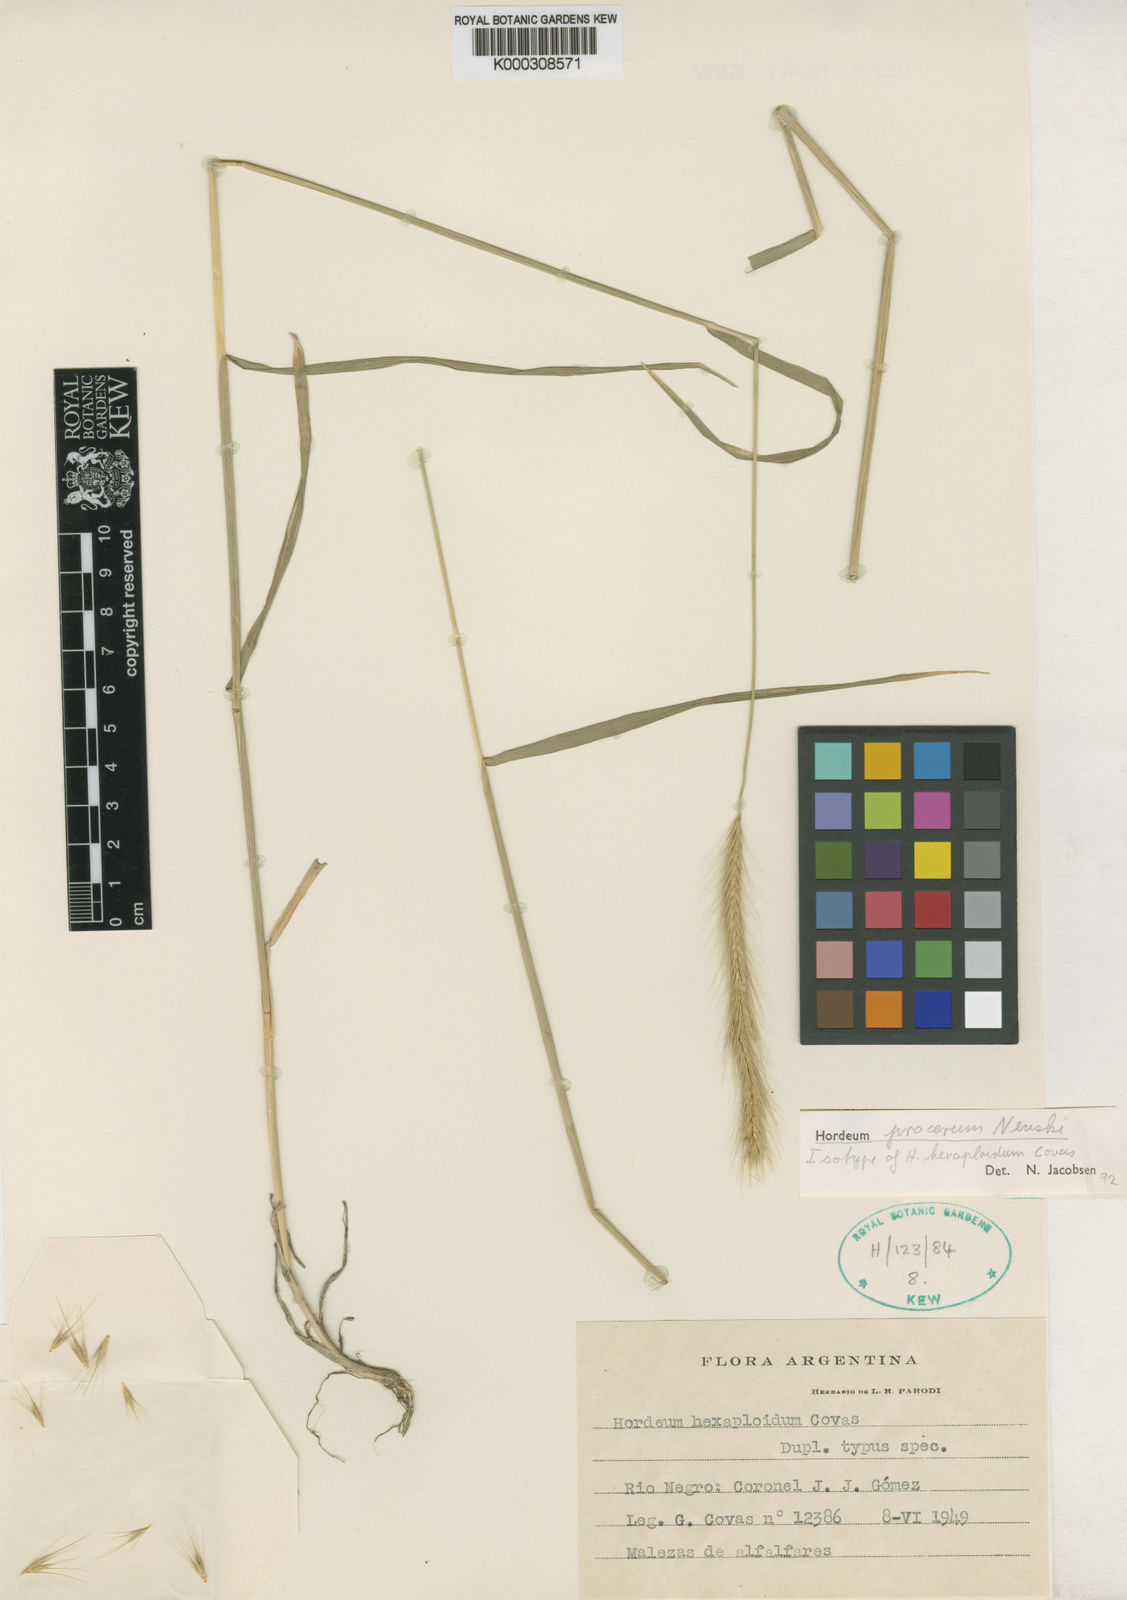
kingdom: Plantae
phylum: Tracheophyta
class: Liliopsida
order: Poales
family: Poaceae
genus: Hordeum
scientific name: Hordeum procerum
